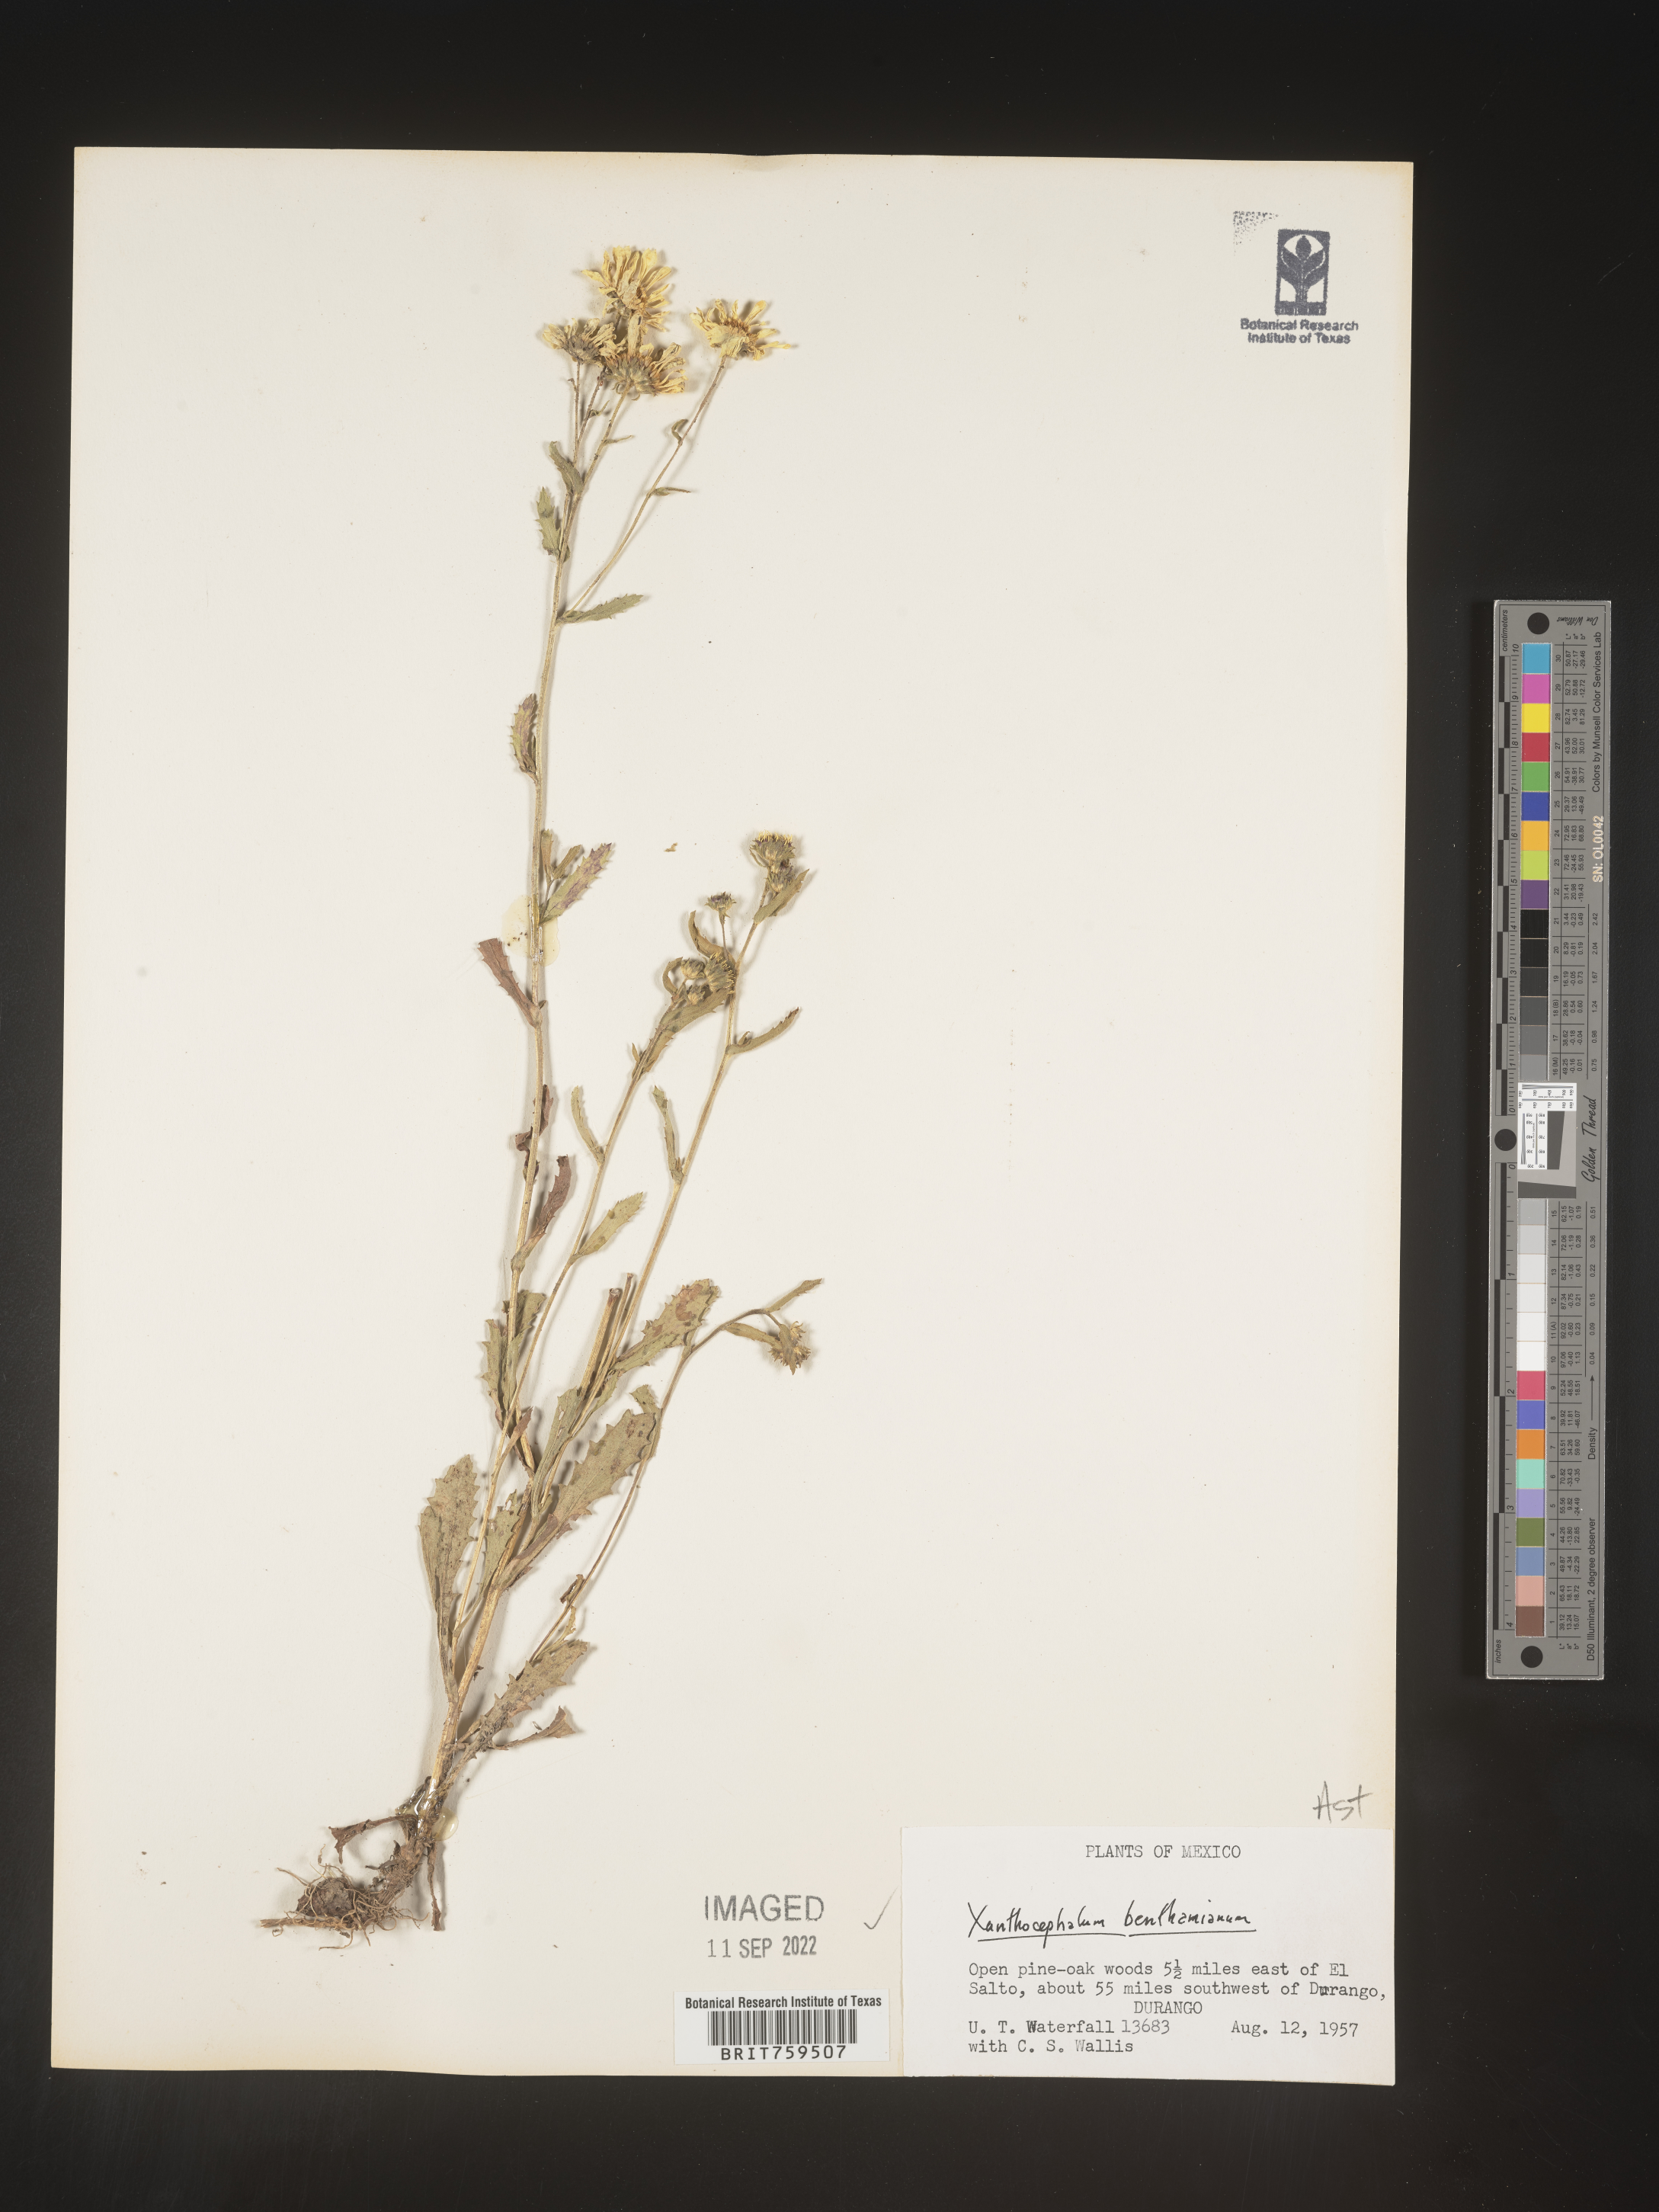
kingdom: Plantae
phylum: Tracheophyta
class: Magnoliopsida
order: Asterales
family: Asteraceae
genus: Xanthocephalum
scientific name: Xanthocephalum benthamianum
